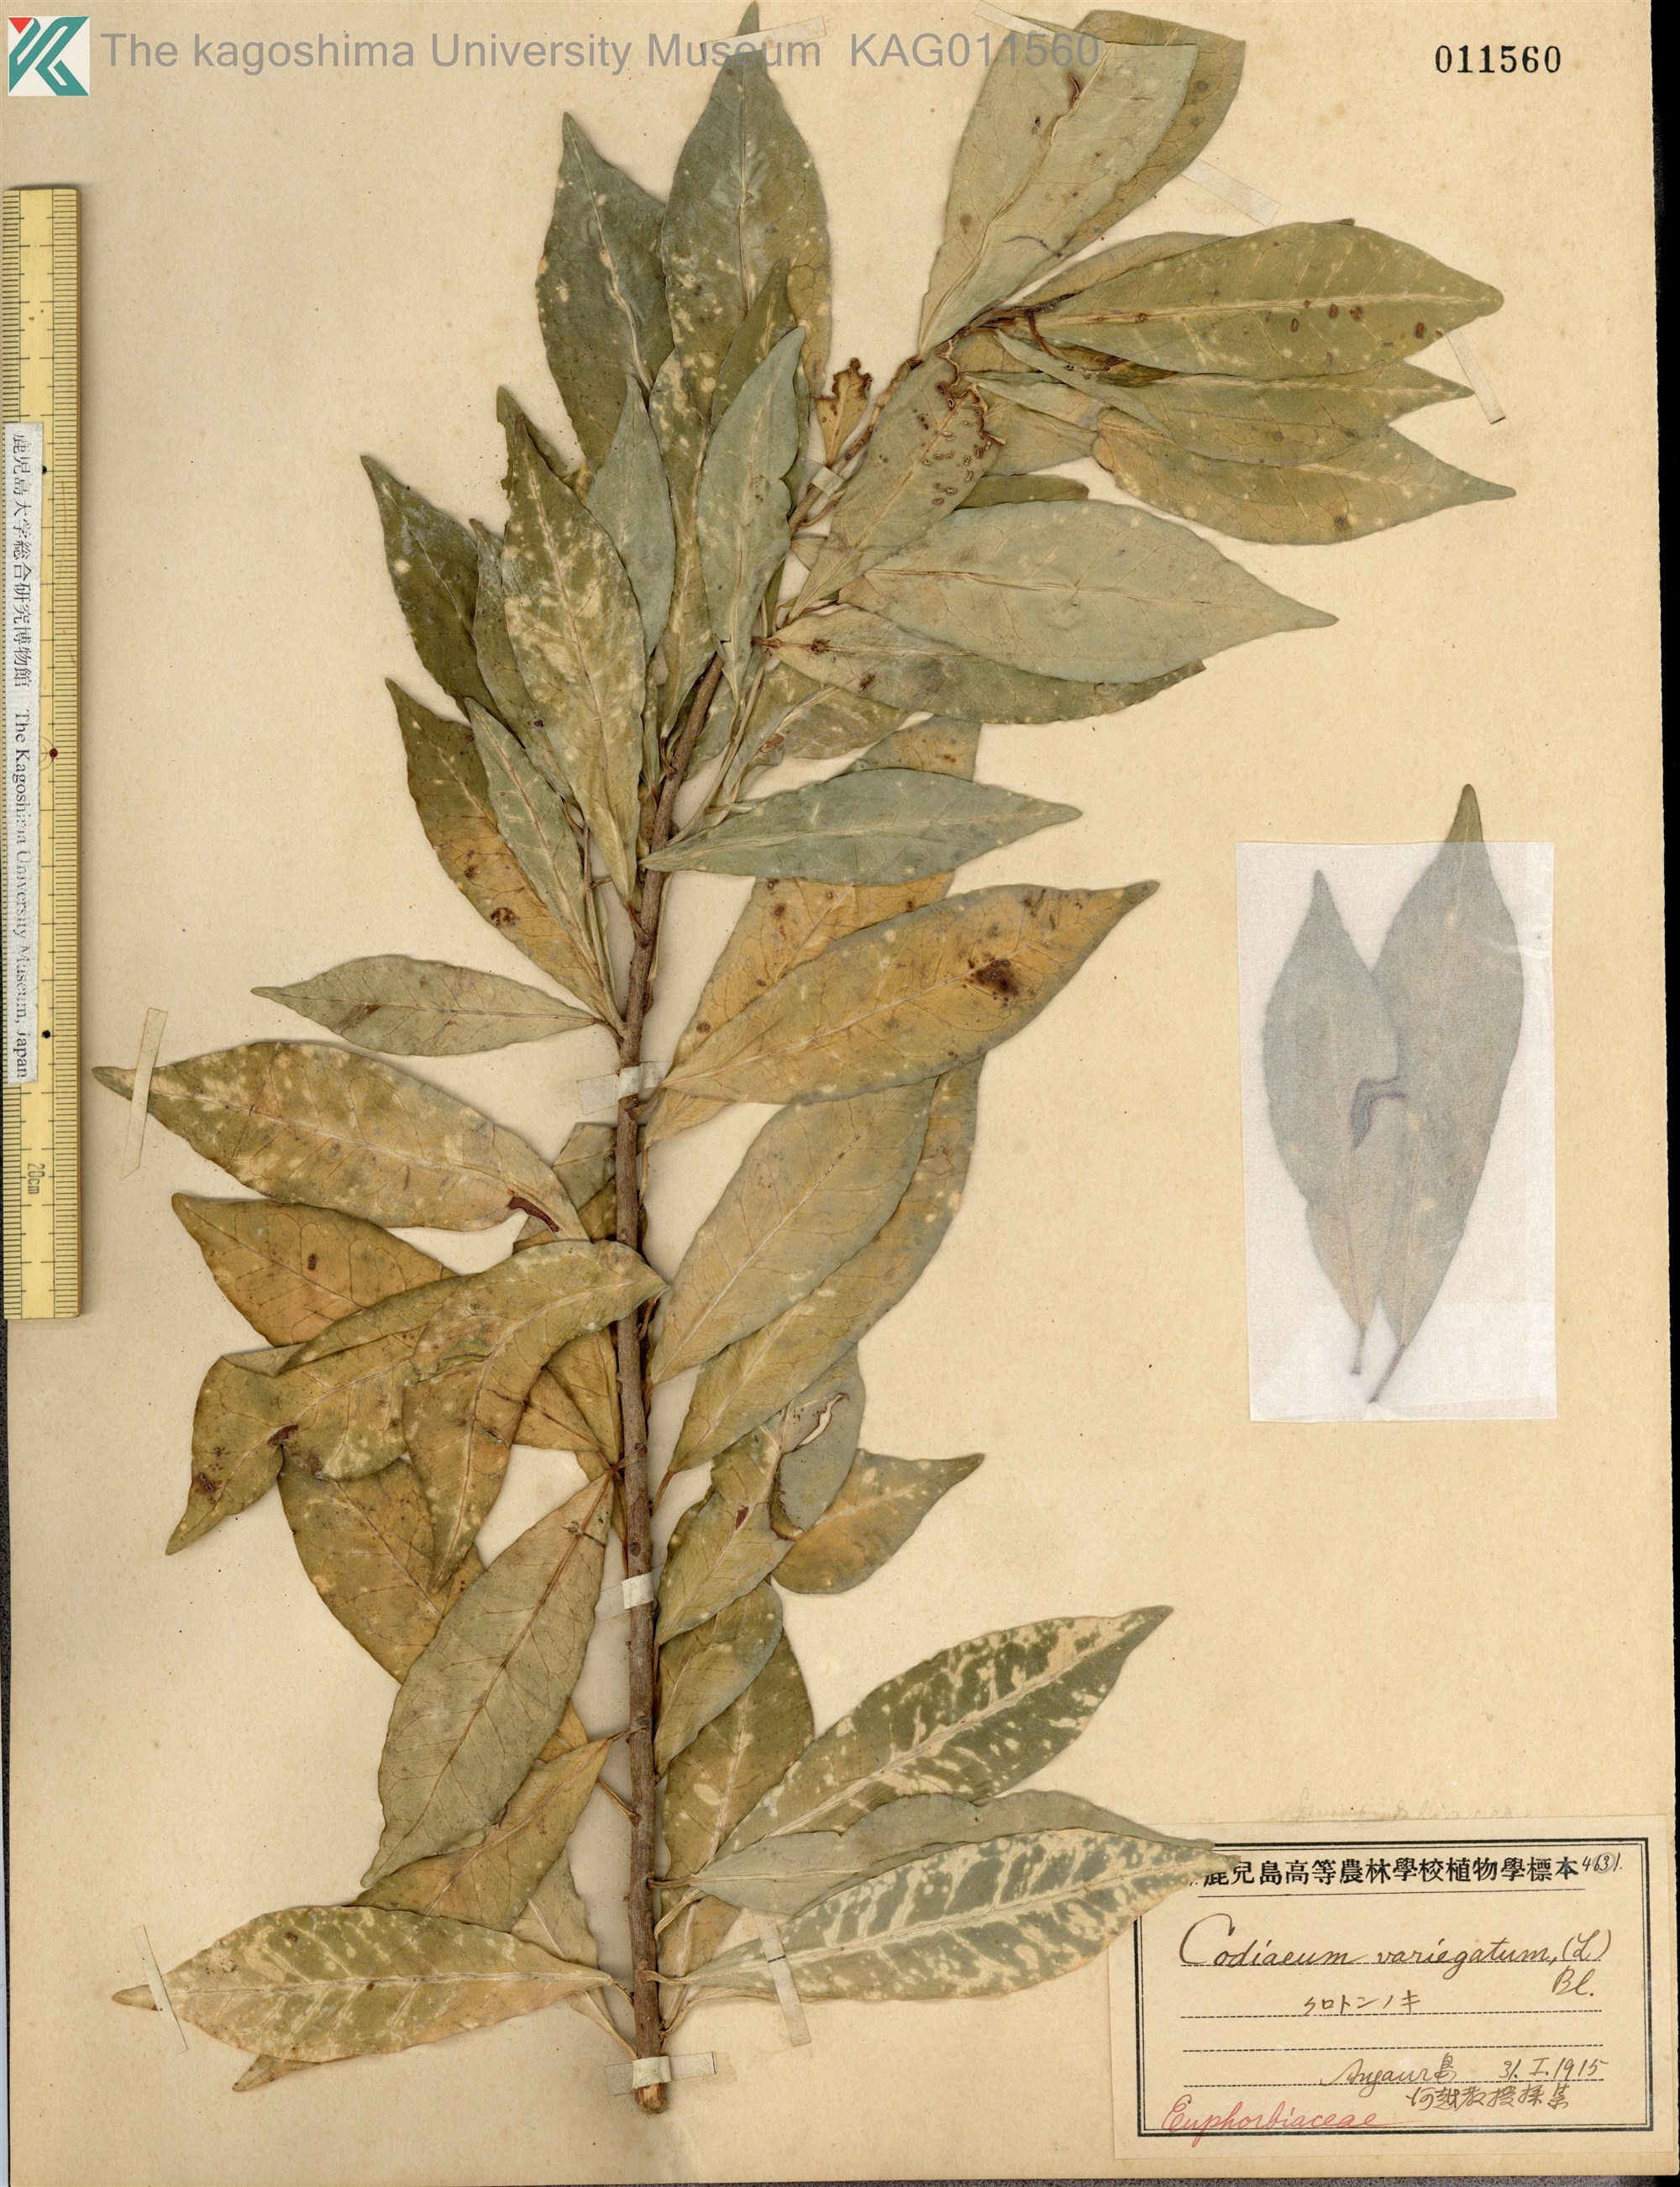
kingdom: Plantae
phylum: Tracheophyta
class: Magnoliopsida
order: Malpighiales
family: Euphorbiaceae
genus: Codiaeum
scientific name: Codiaeum variegatum
